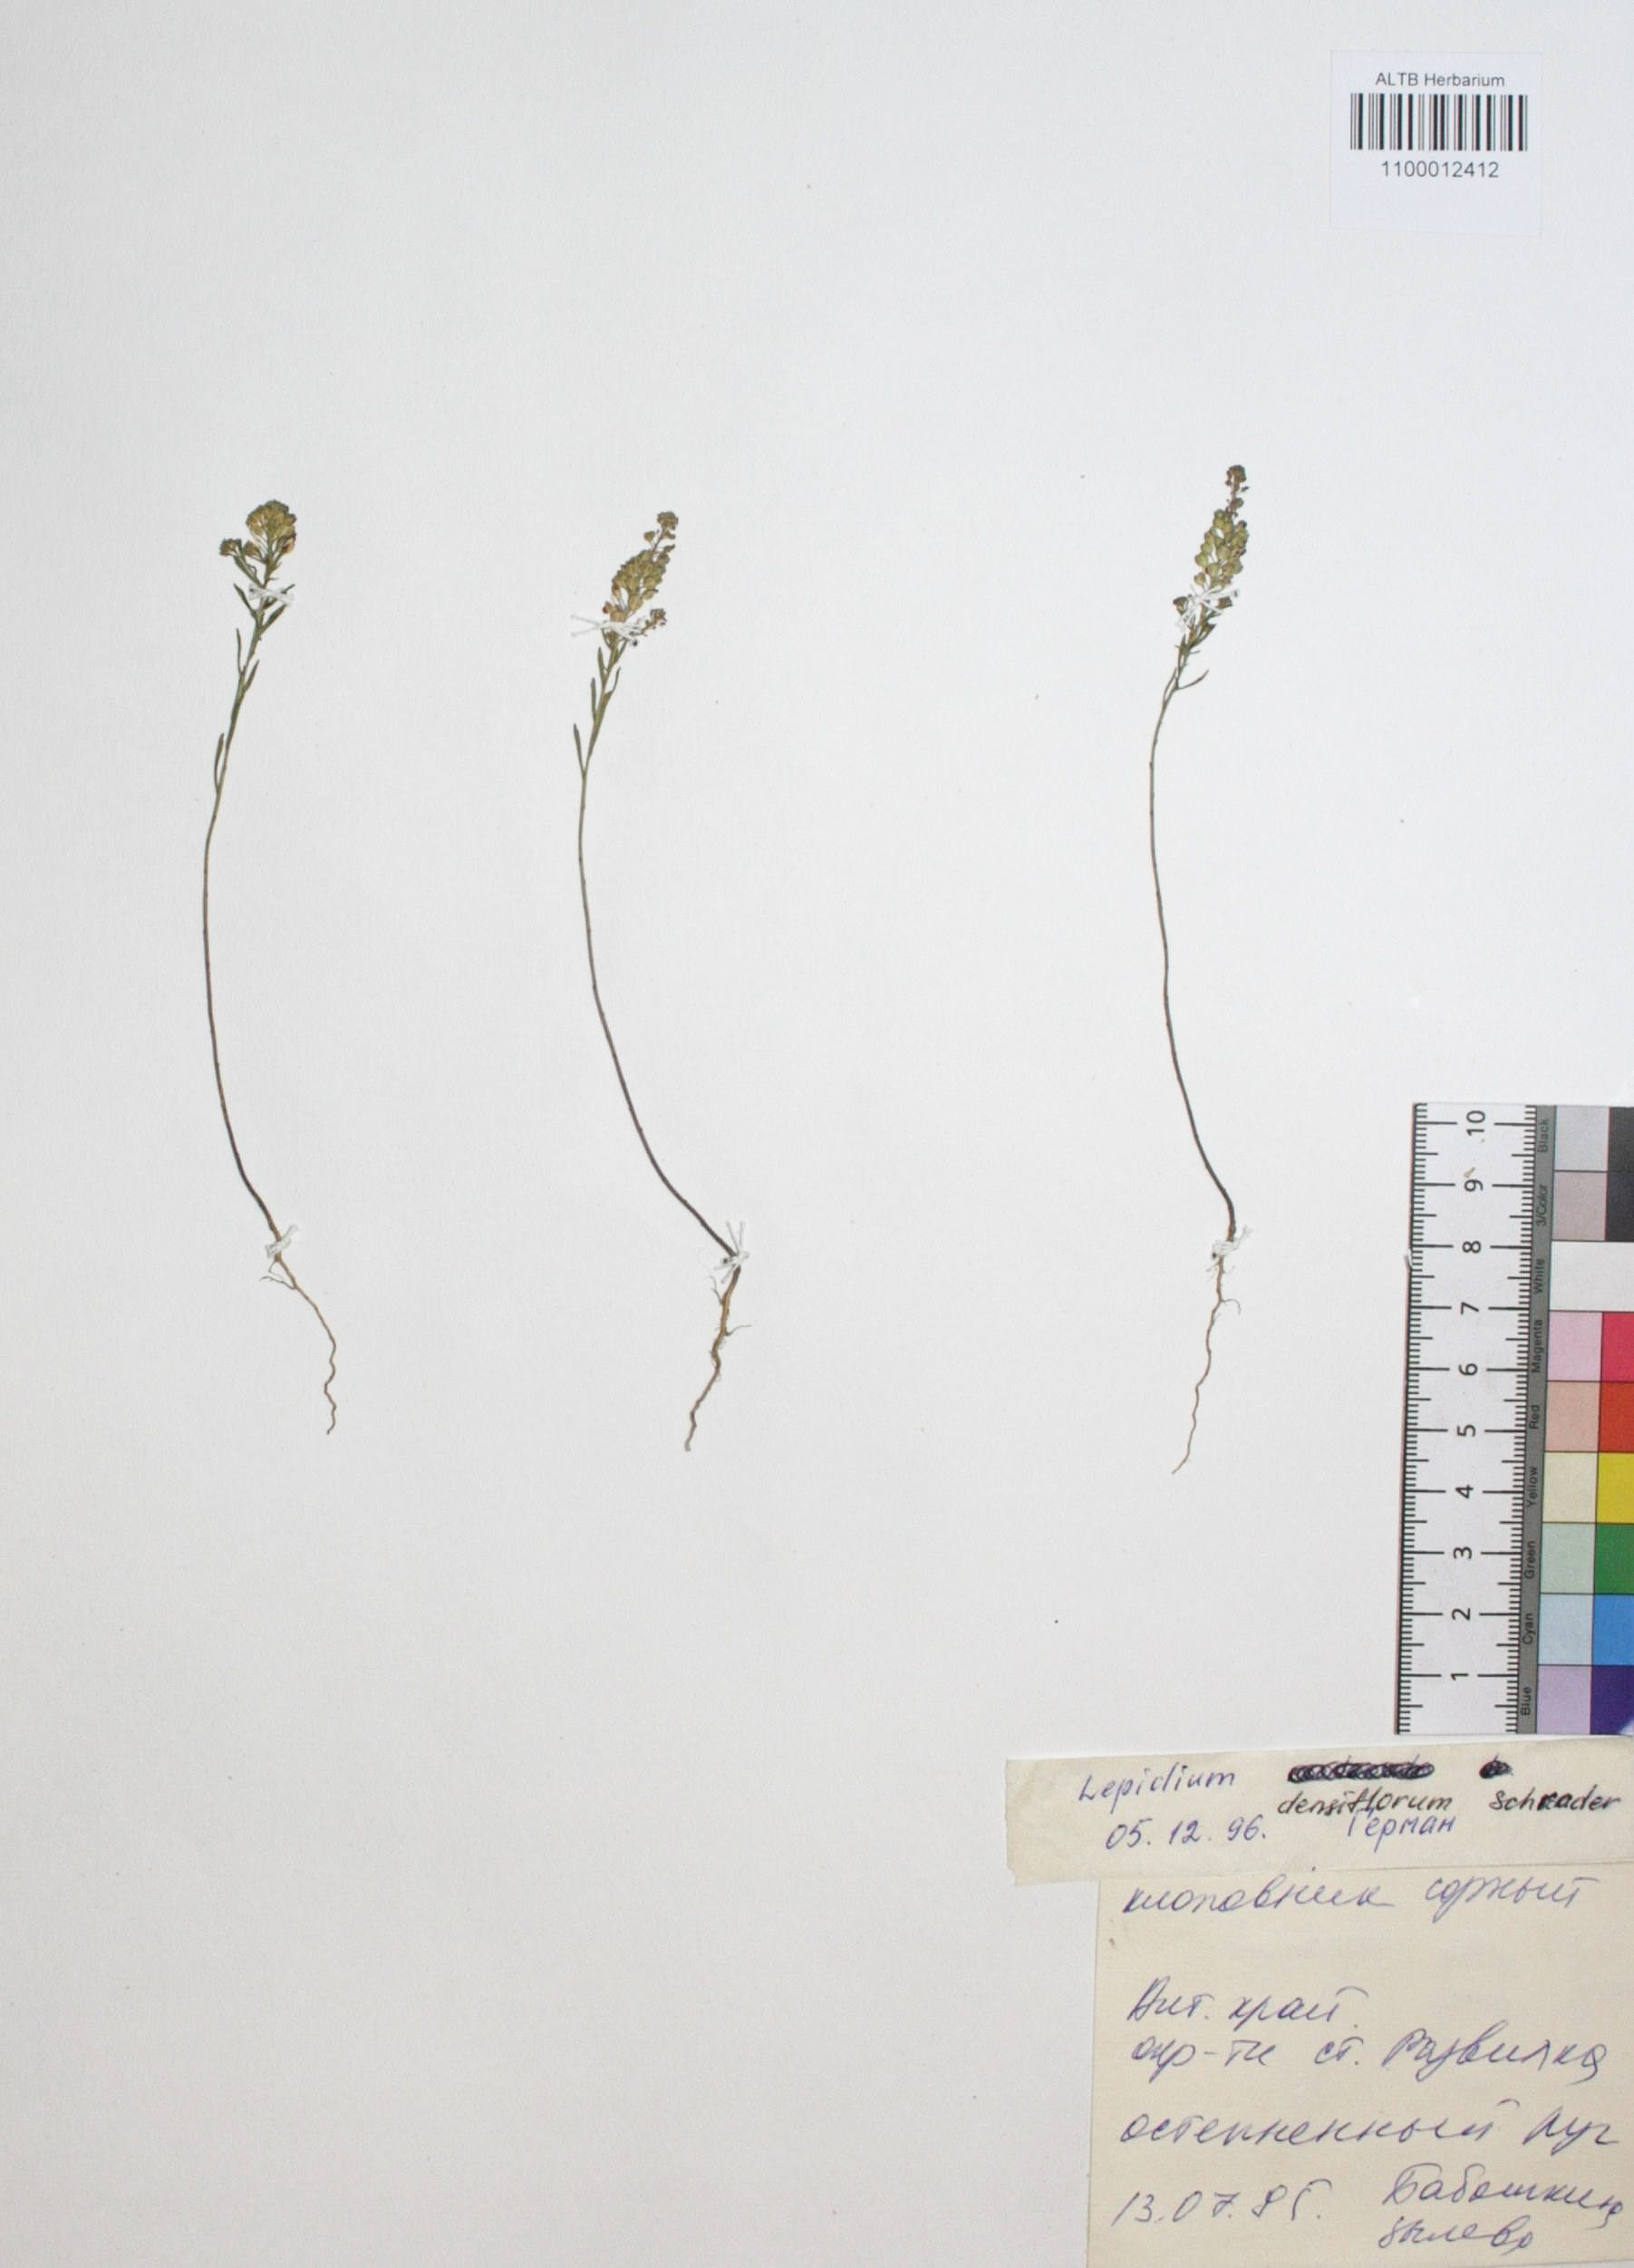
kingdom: Plantae
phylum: Tracheophyta
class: Magnoliopsida
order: Brassicales
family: Brassicaceae
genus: Lepidium
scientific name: Lepidium densiflorum
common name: Miner's pepperwort
